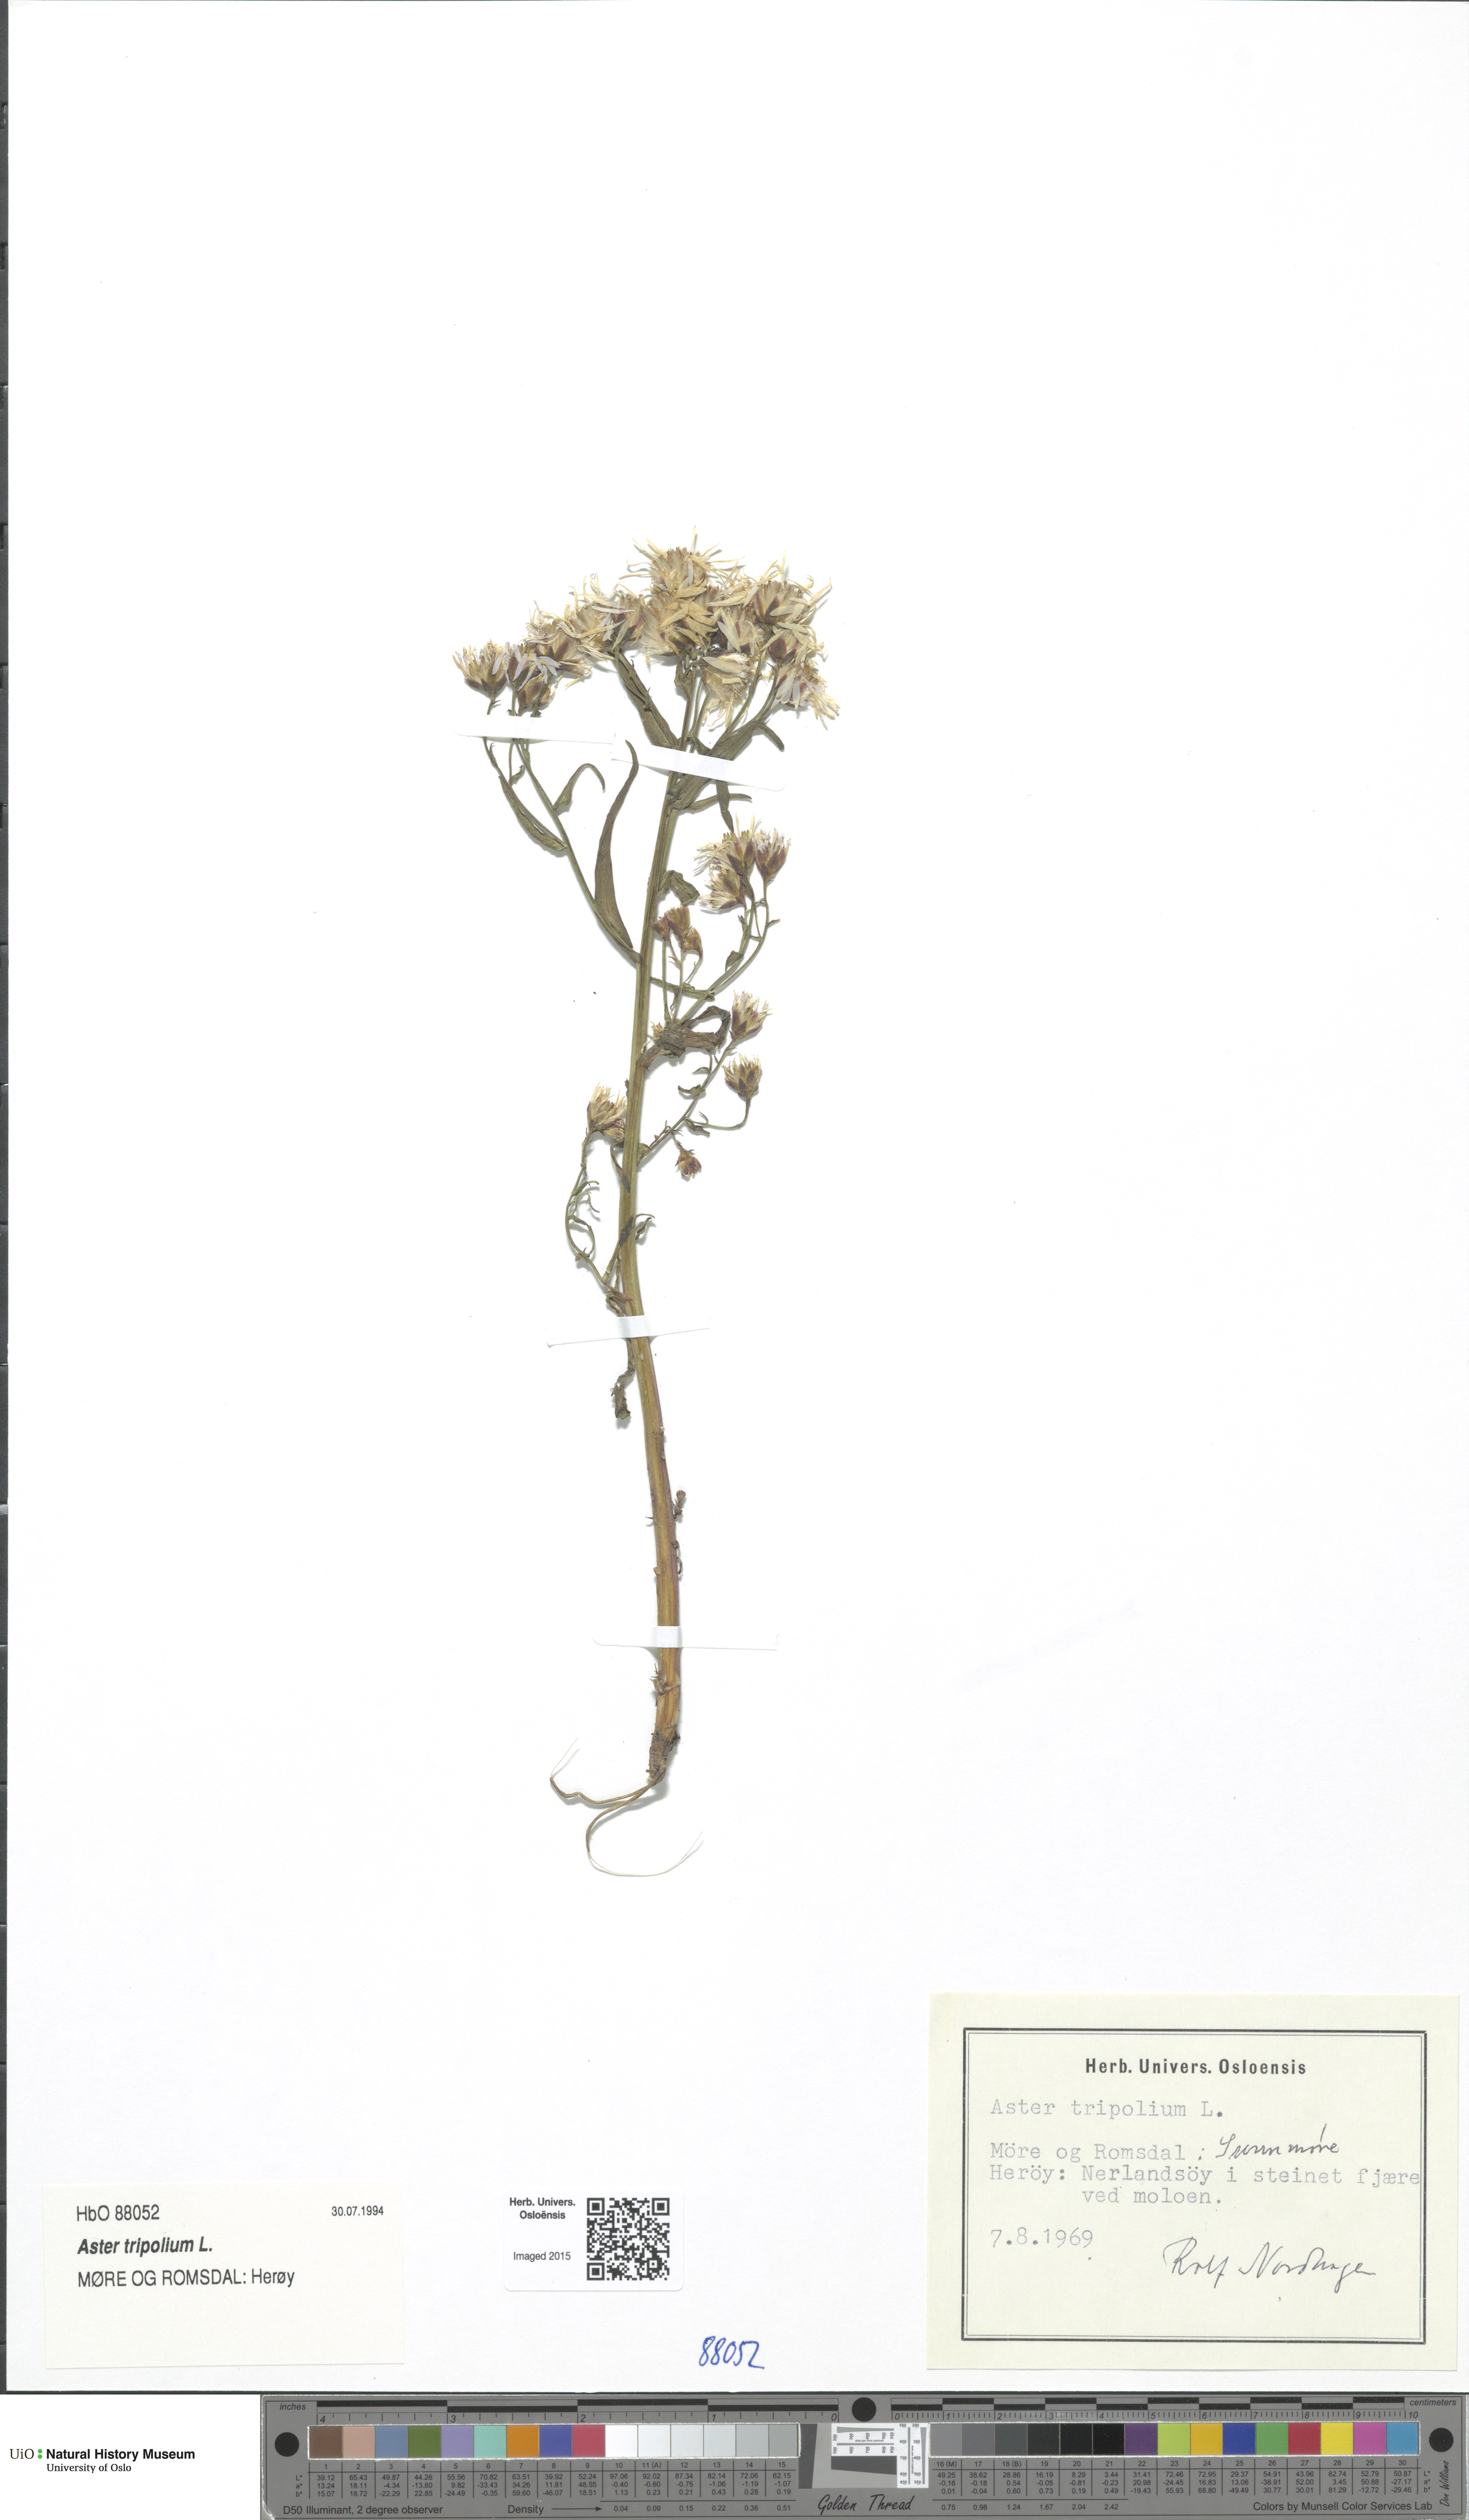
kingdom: Plantae
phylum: Tracheophyta
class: Magnoliopsida
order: Asterales
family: Asteraceae
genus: Tripolium
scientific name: Tripolium pannonicum
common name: Sea aster
